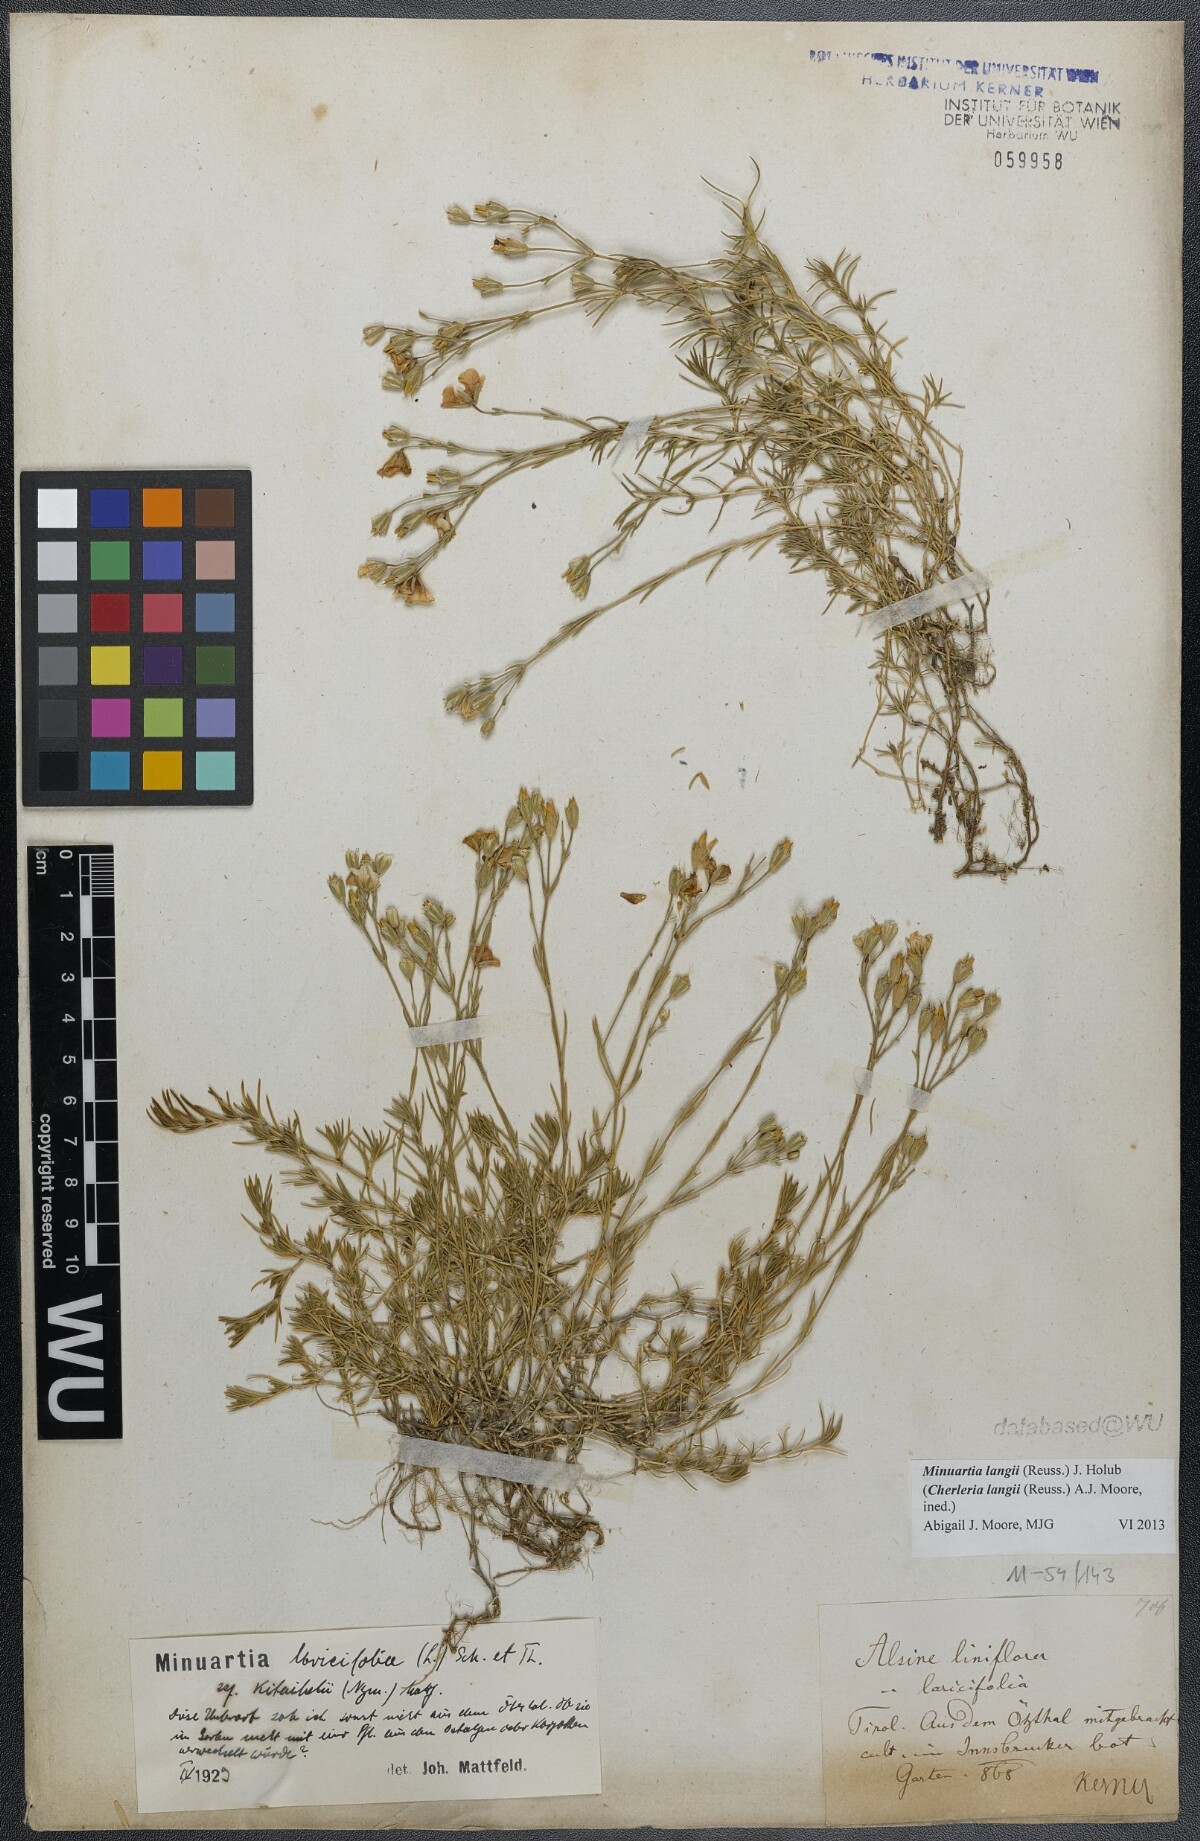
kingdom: Plantae
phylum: Tracheophyta
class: Magnoliopsida
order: Caryophyllales
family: Caryophyllaceae
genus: Cherleria
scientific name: Cherleria langii
